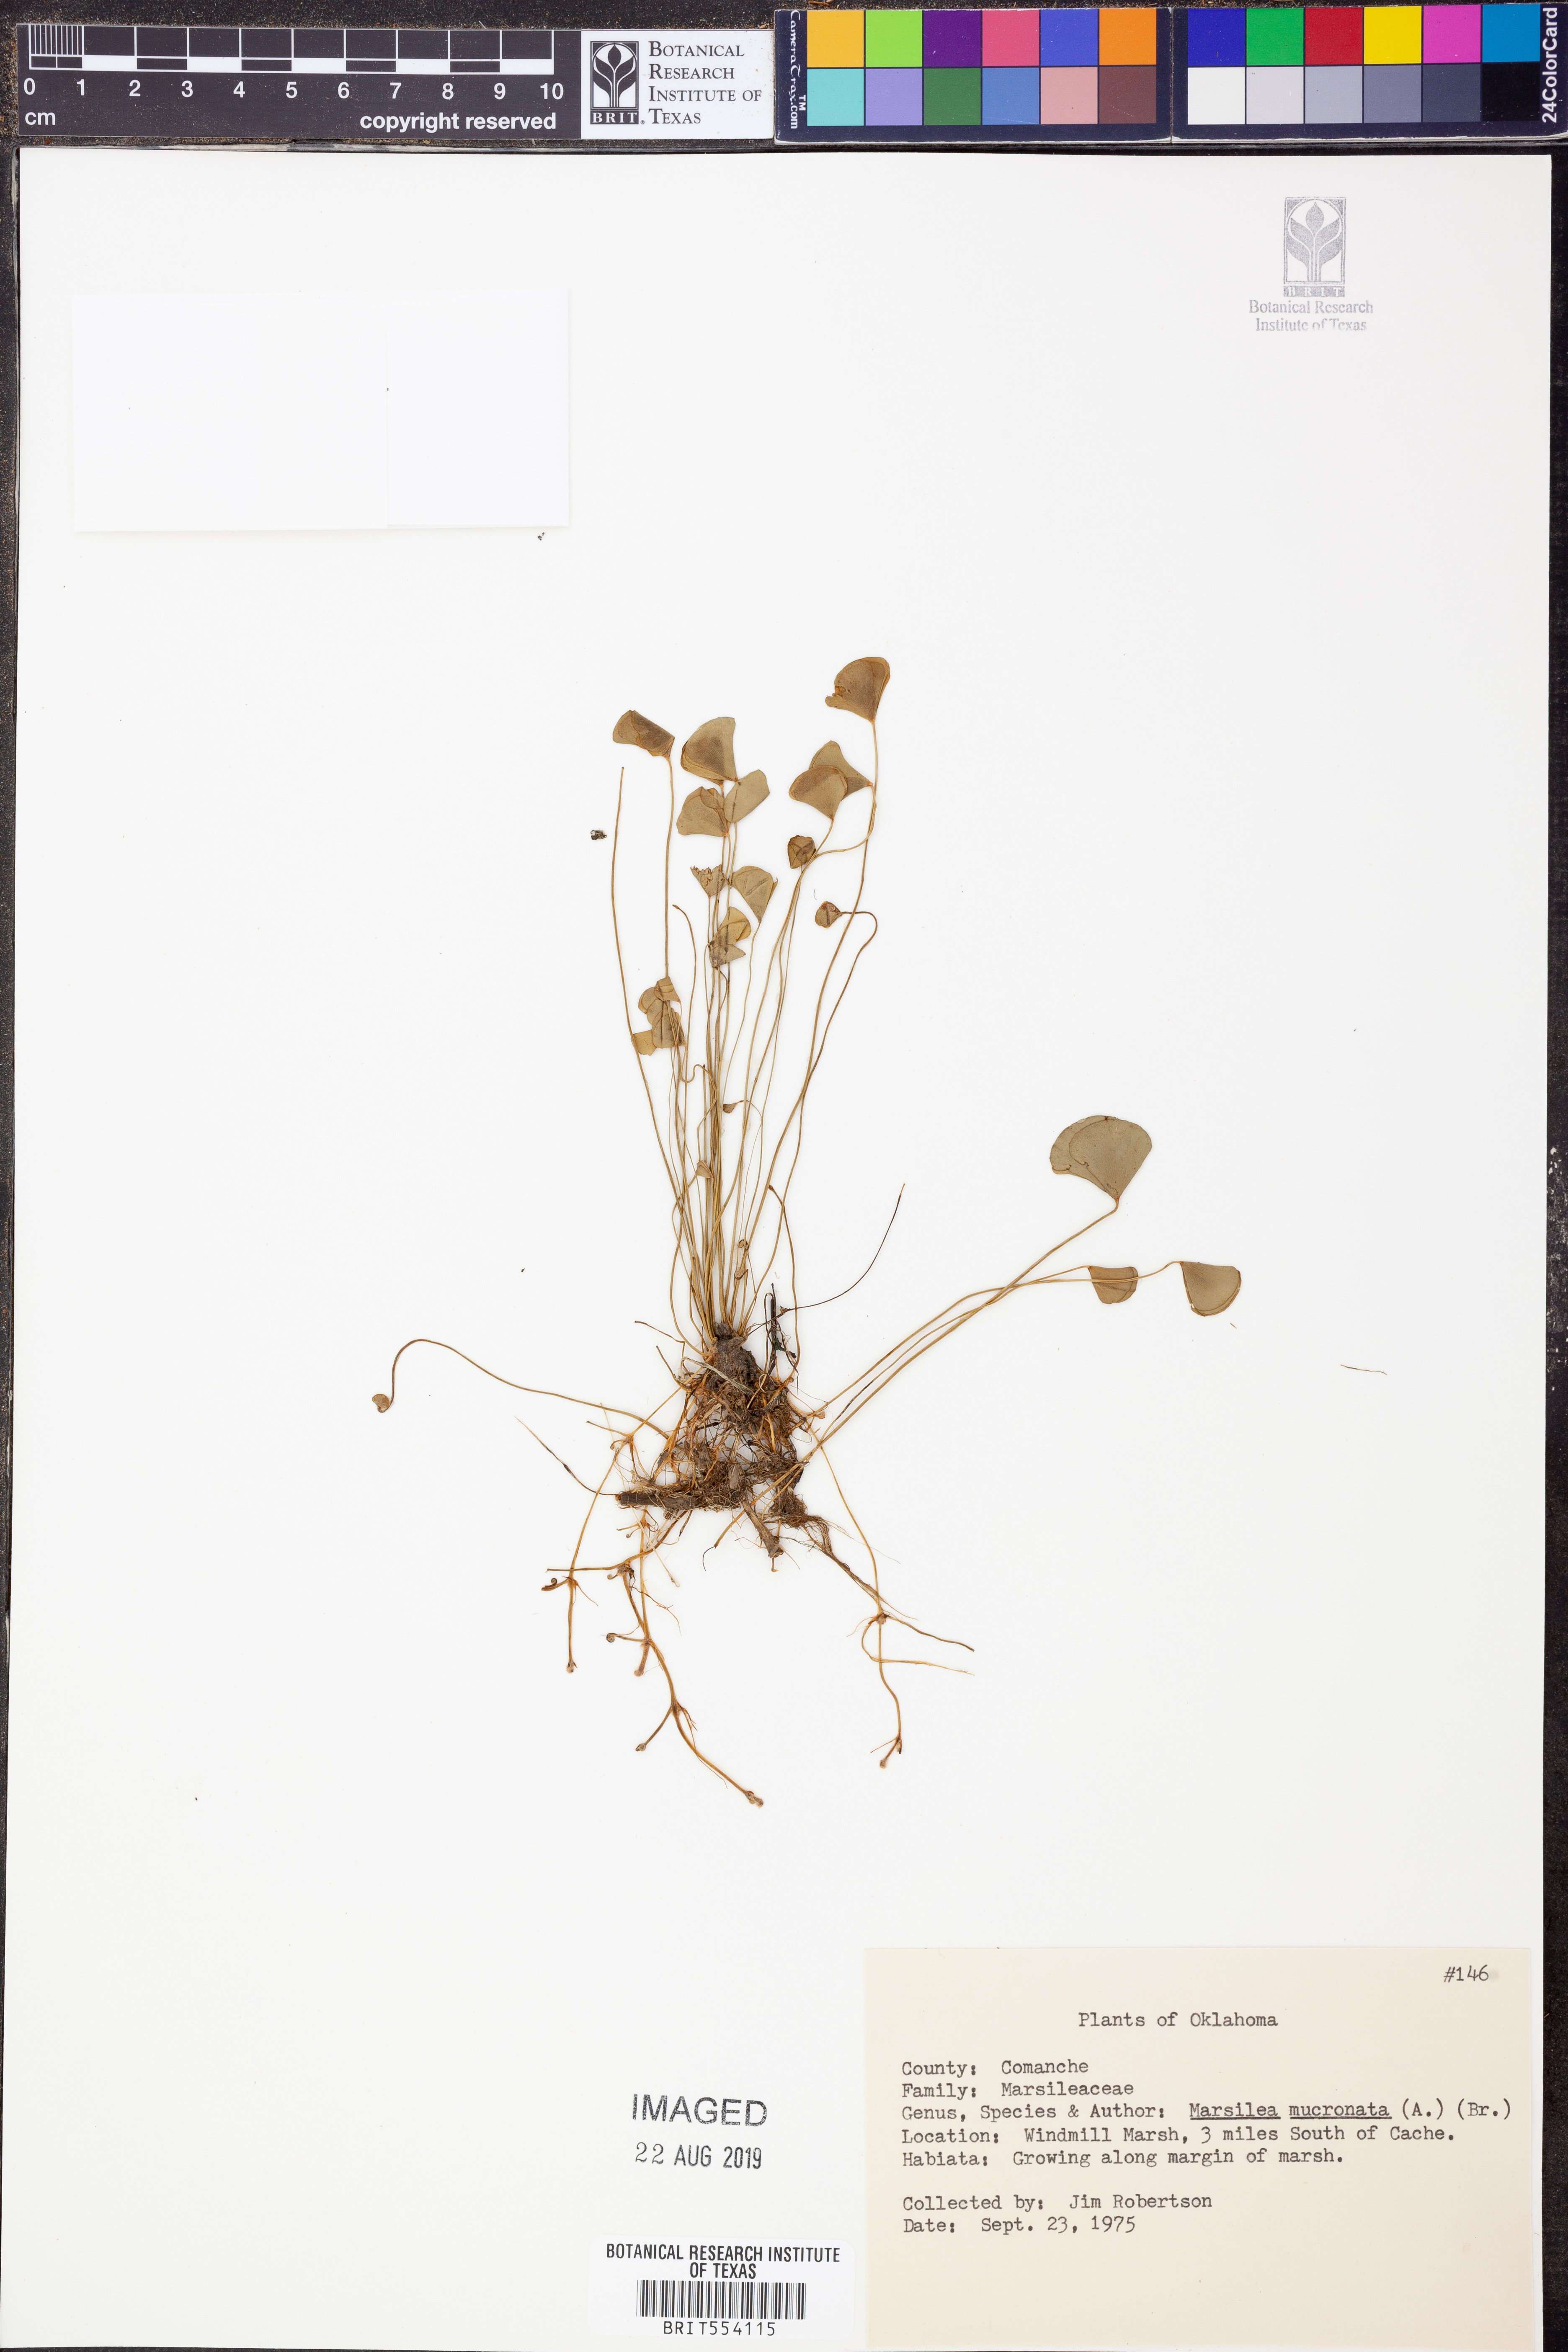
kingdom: Plantae
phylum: Tracheophyta
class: Polypodiopsida
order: Salviniales
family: Marsileaceae
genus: Marsilea
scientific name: Marsilea vestita
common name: Hooked-pepperwort
